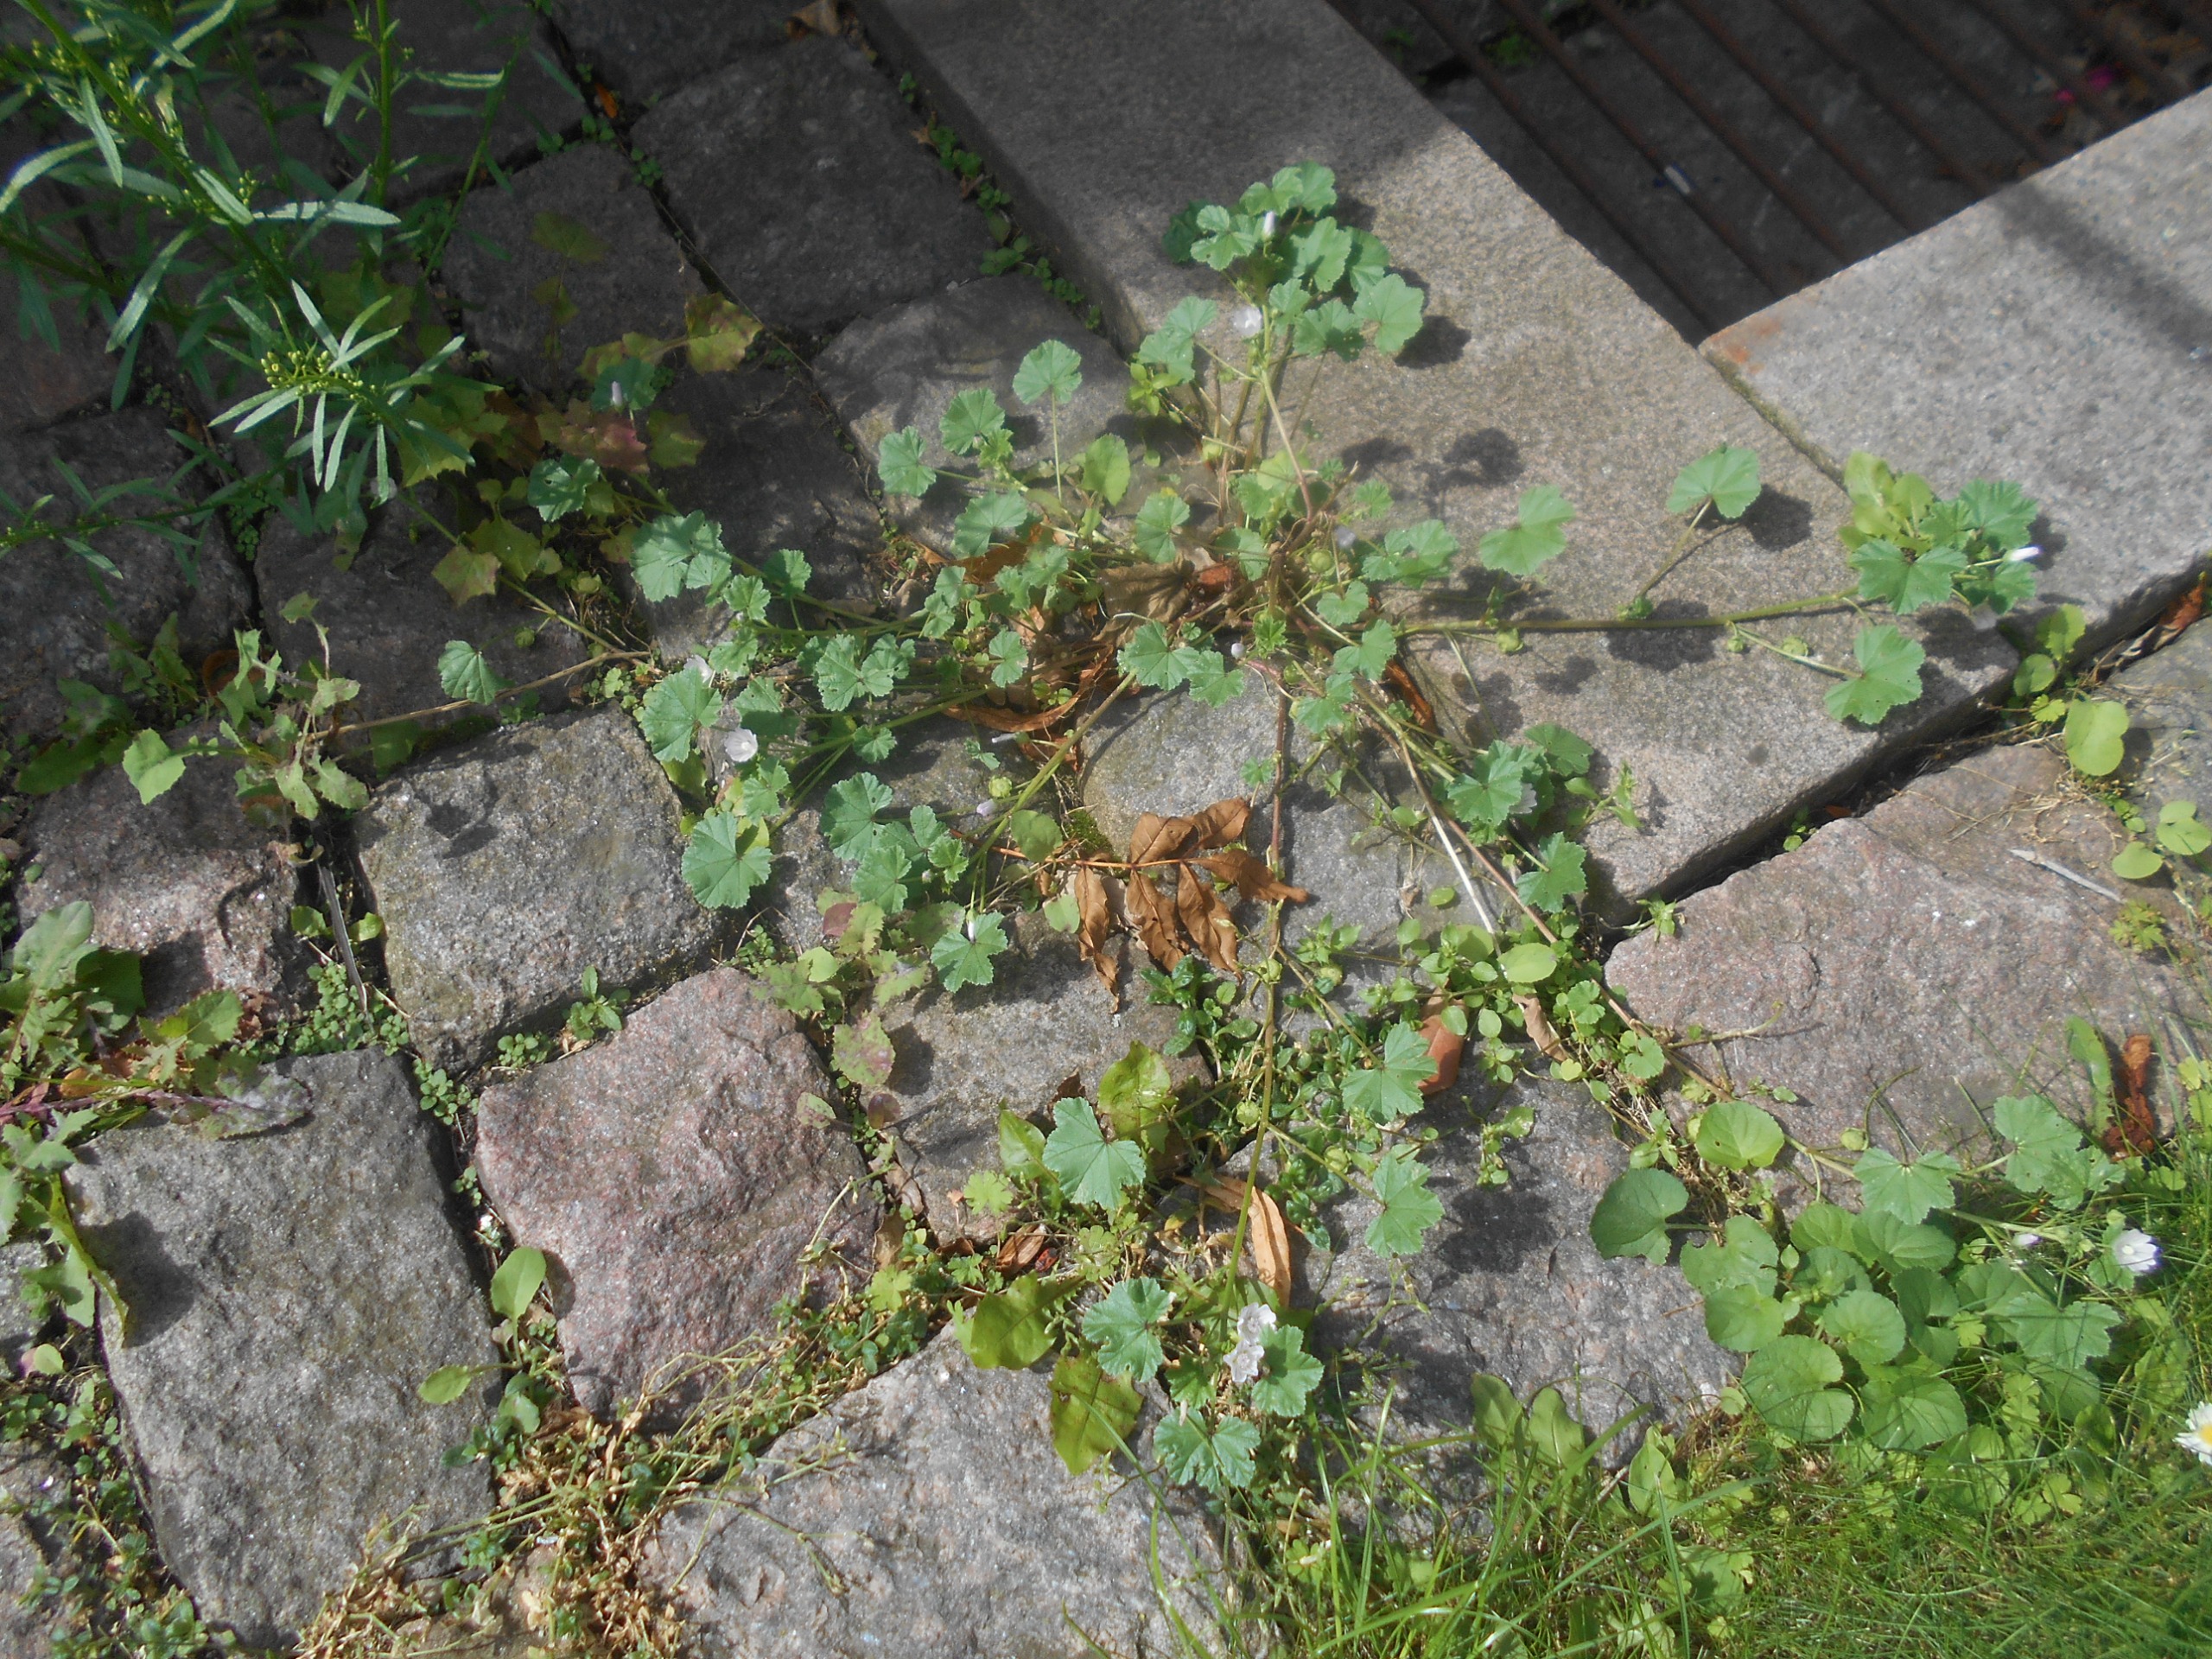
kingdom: Plantae
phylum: Tracheophyta
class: Magnoliopsida
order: Malvales
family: Malvaceae
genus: Malva
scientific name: Malva neglecta
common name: Rundbladet katost
